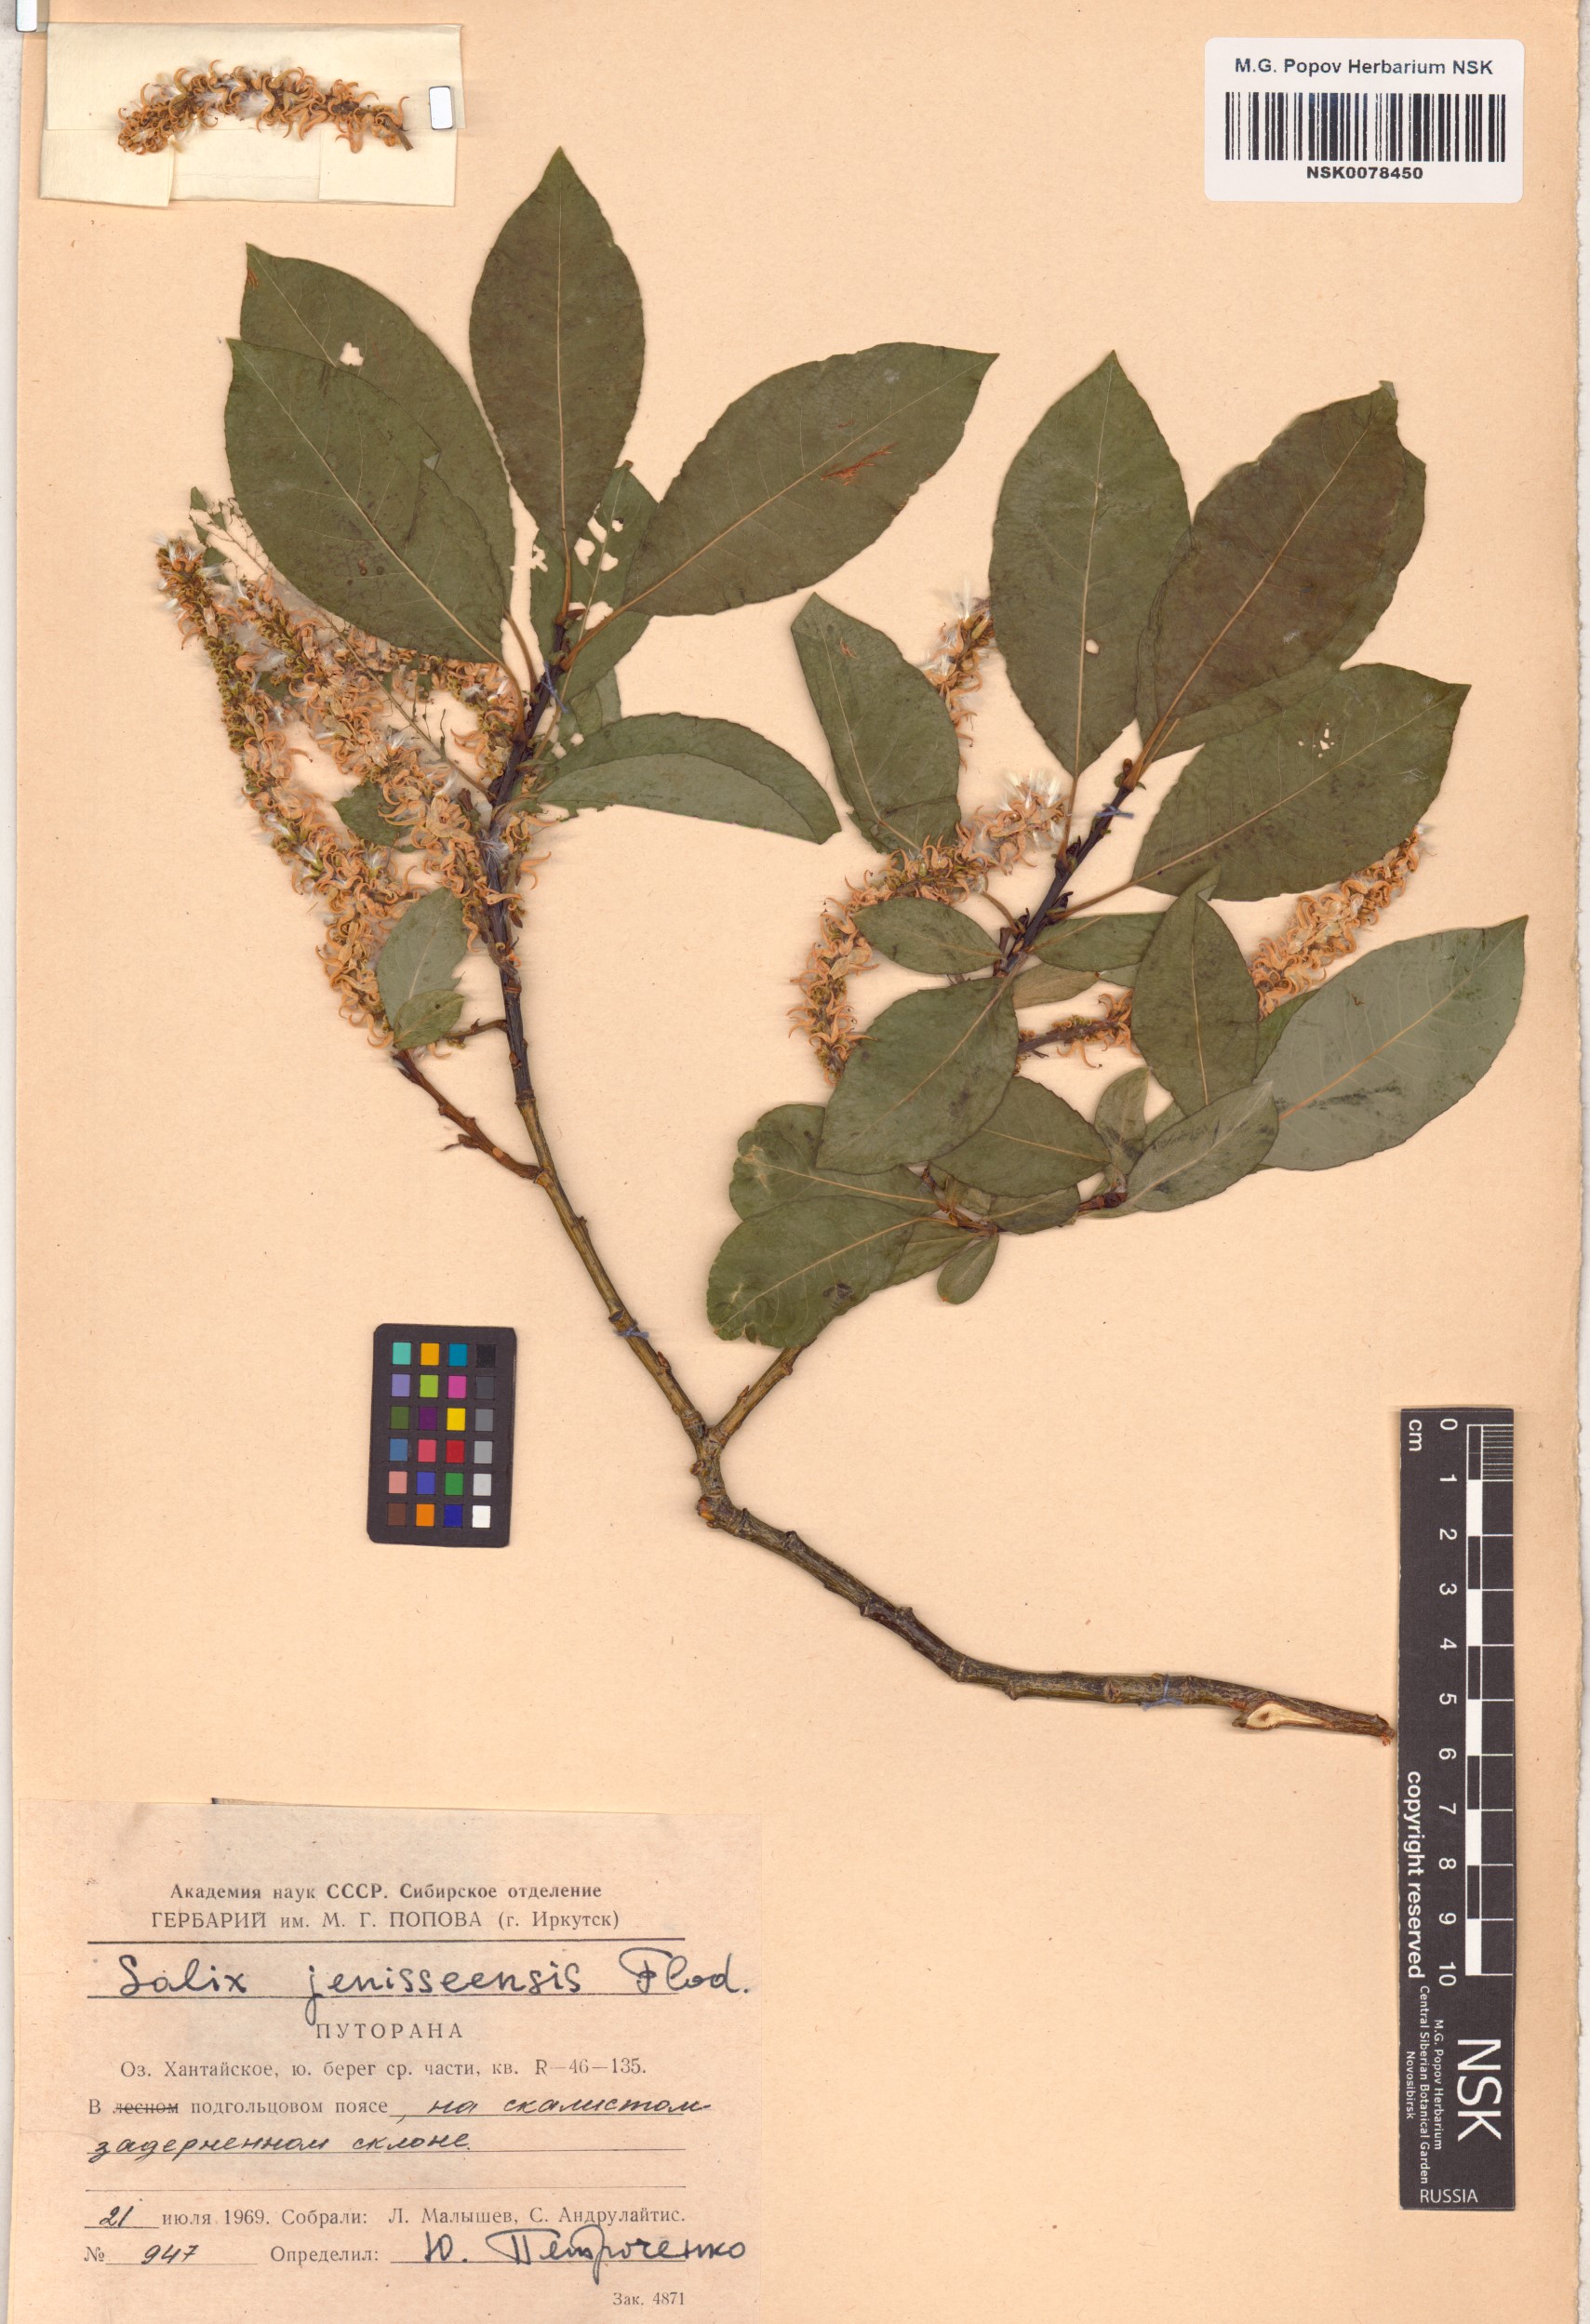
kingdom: Plantae
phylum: Tracheophyta
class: Magnoliopsida
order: Malpighiales
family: Salicaceae
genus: Salix
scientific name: Salix jenisseensis
